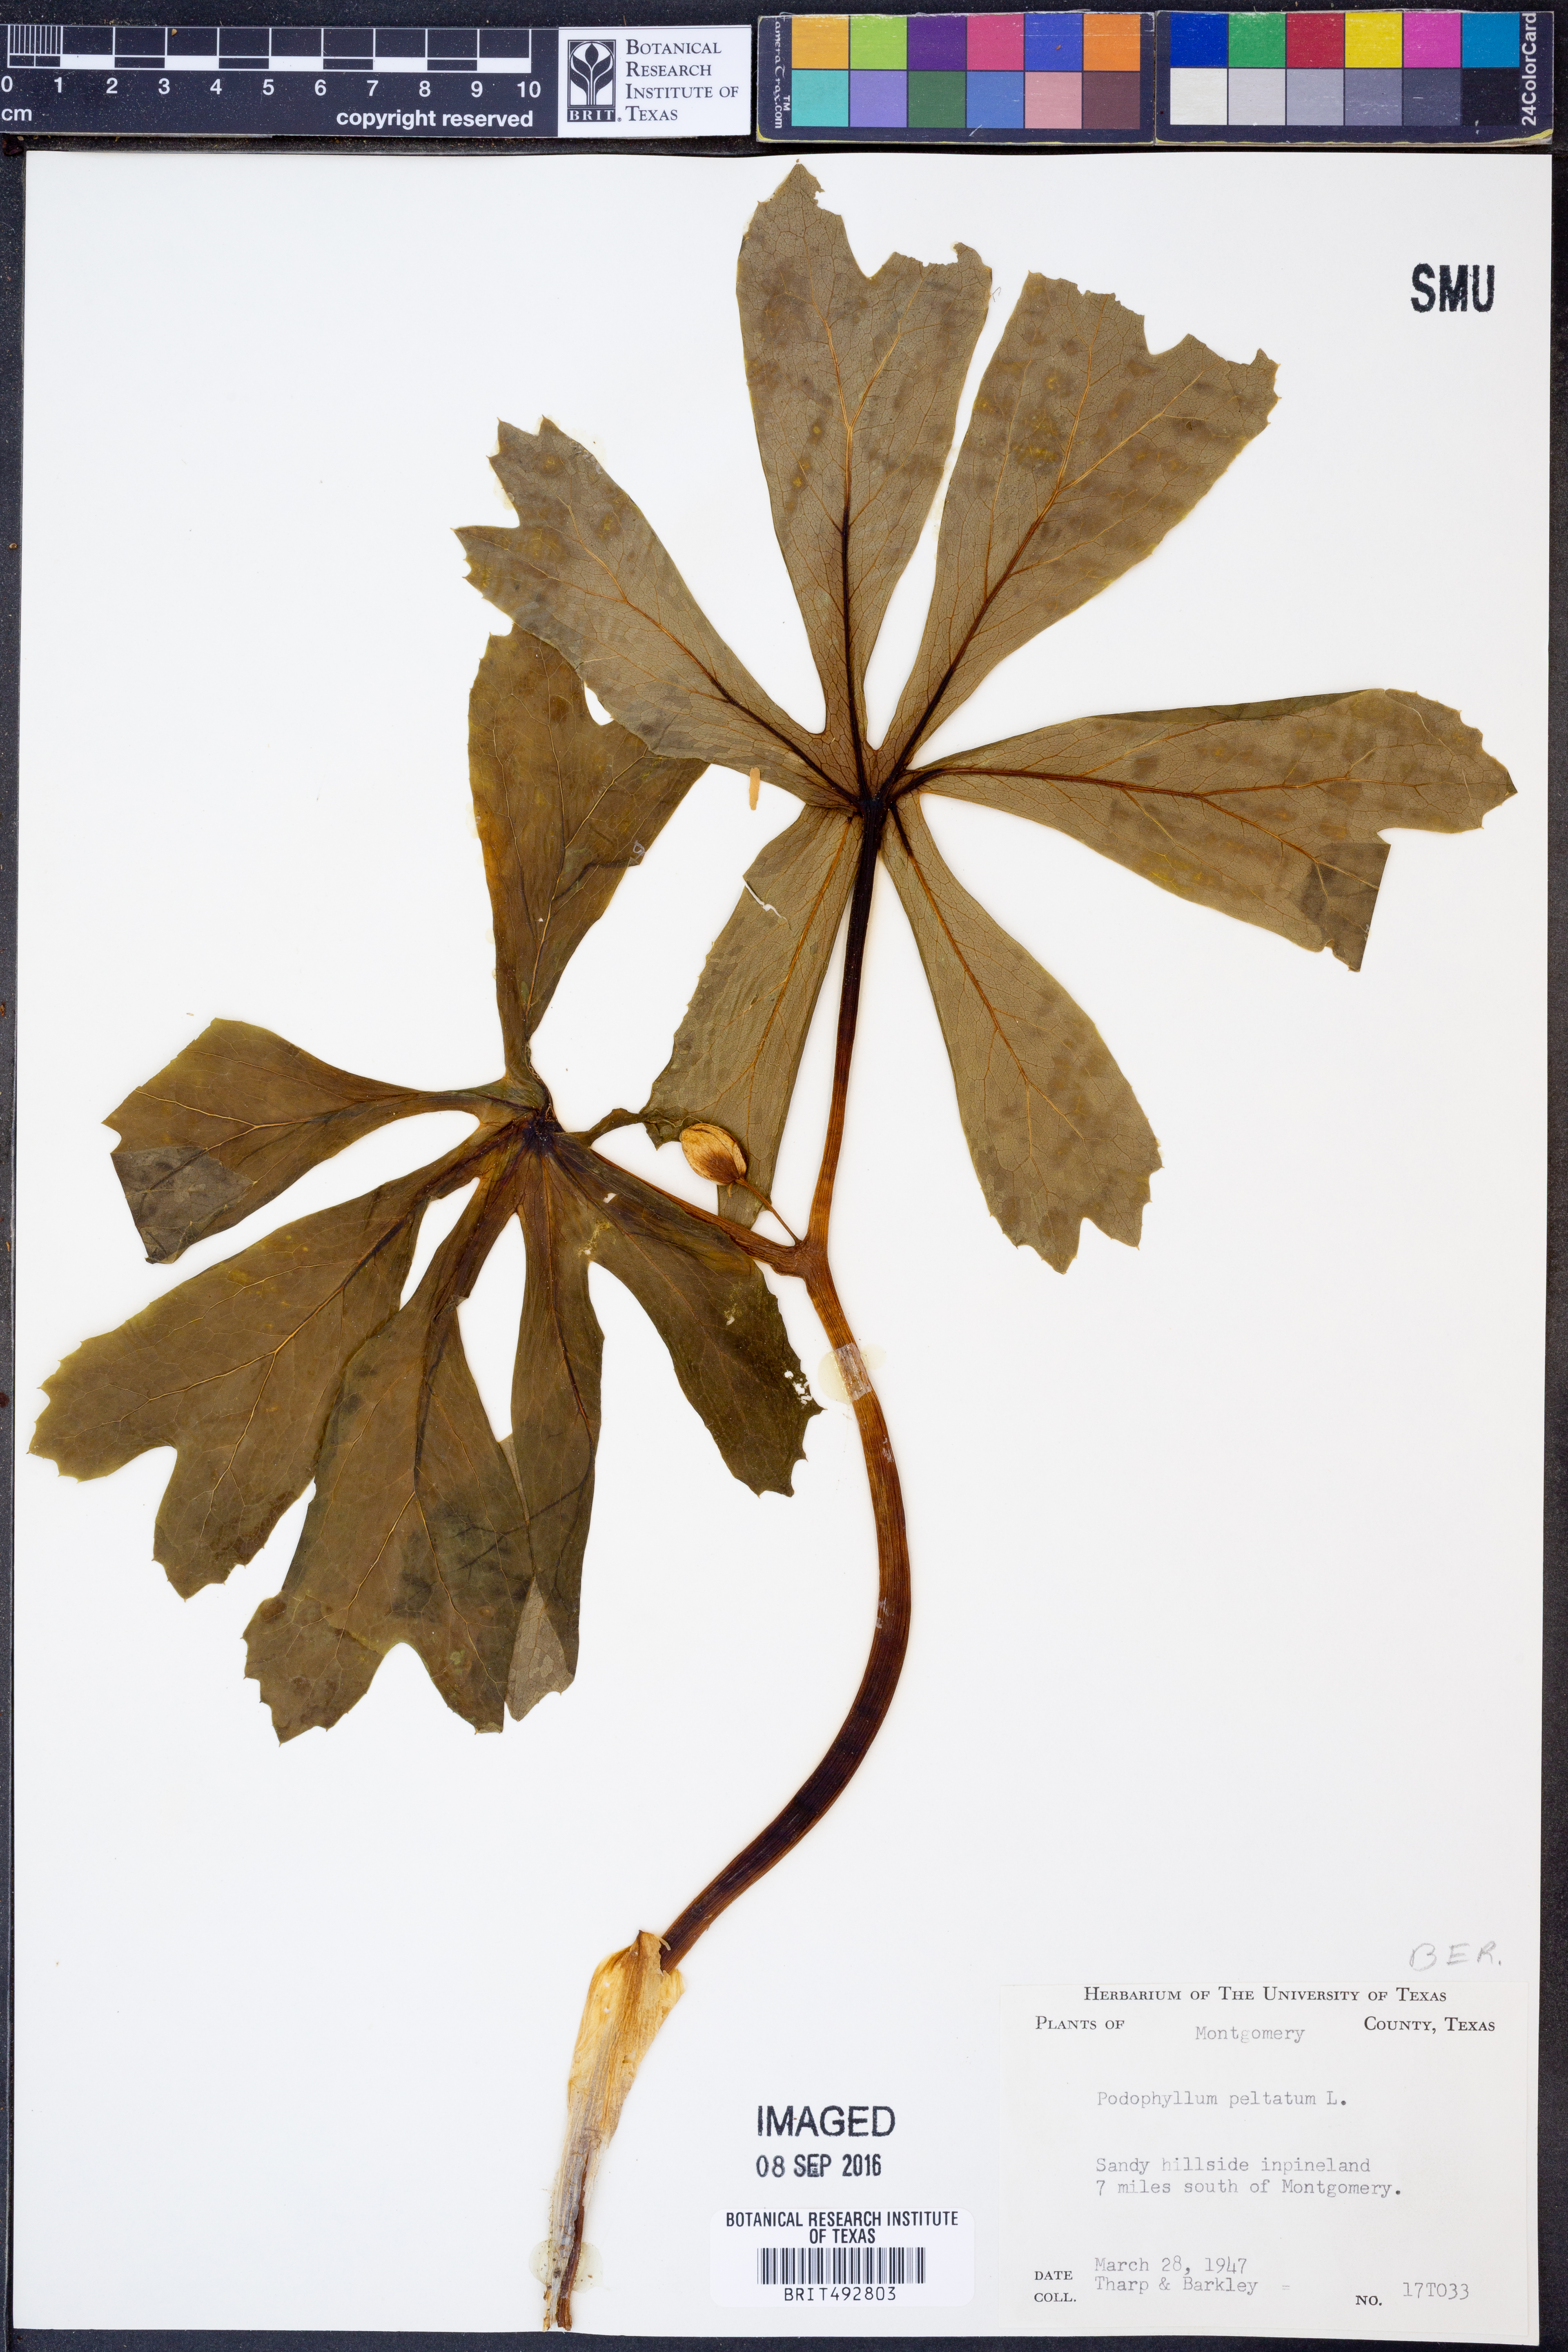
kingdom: Plantae
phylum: Tracheophyta
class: Magnoliopsida
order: Ranunculales
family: Berberidaceae
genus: Podophyllum
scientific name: Podophyllum peltatum
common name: Wild mandrake
